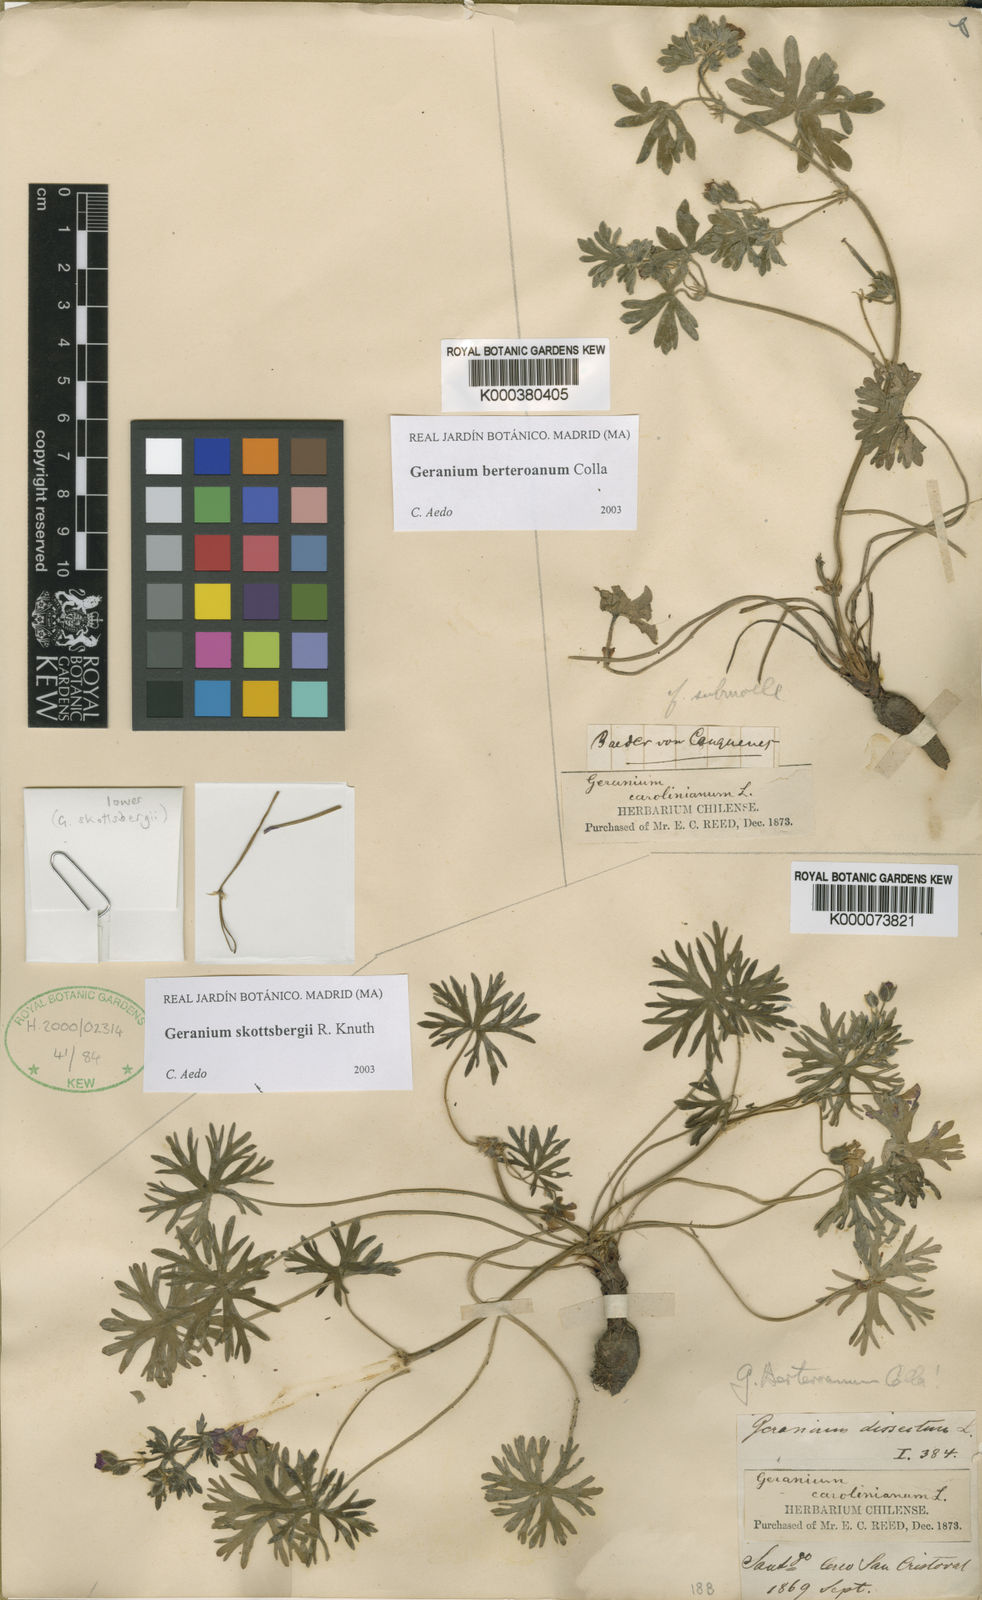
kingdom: Plantae
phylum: Tracheophyta
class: Magnoliopsida
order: Geraniales
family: Geraniaceae
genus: Geranium
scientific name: Geranium
